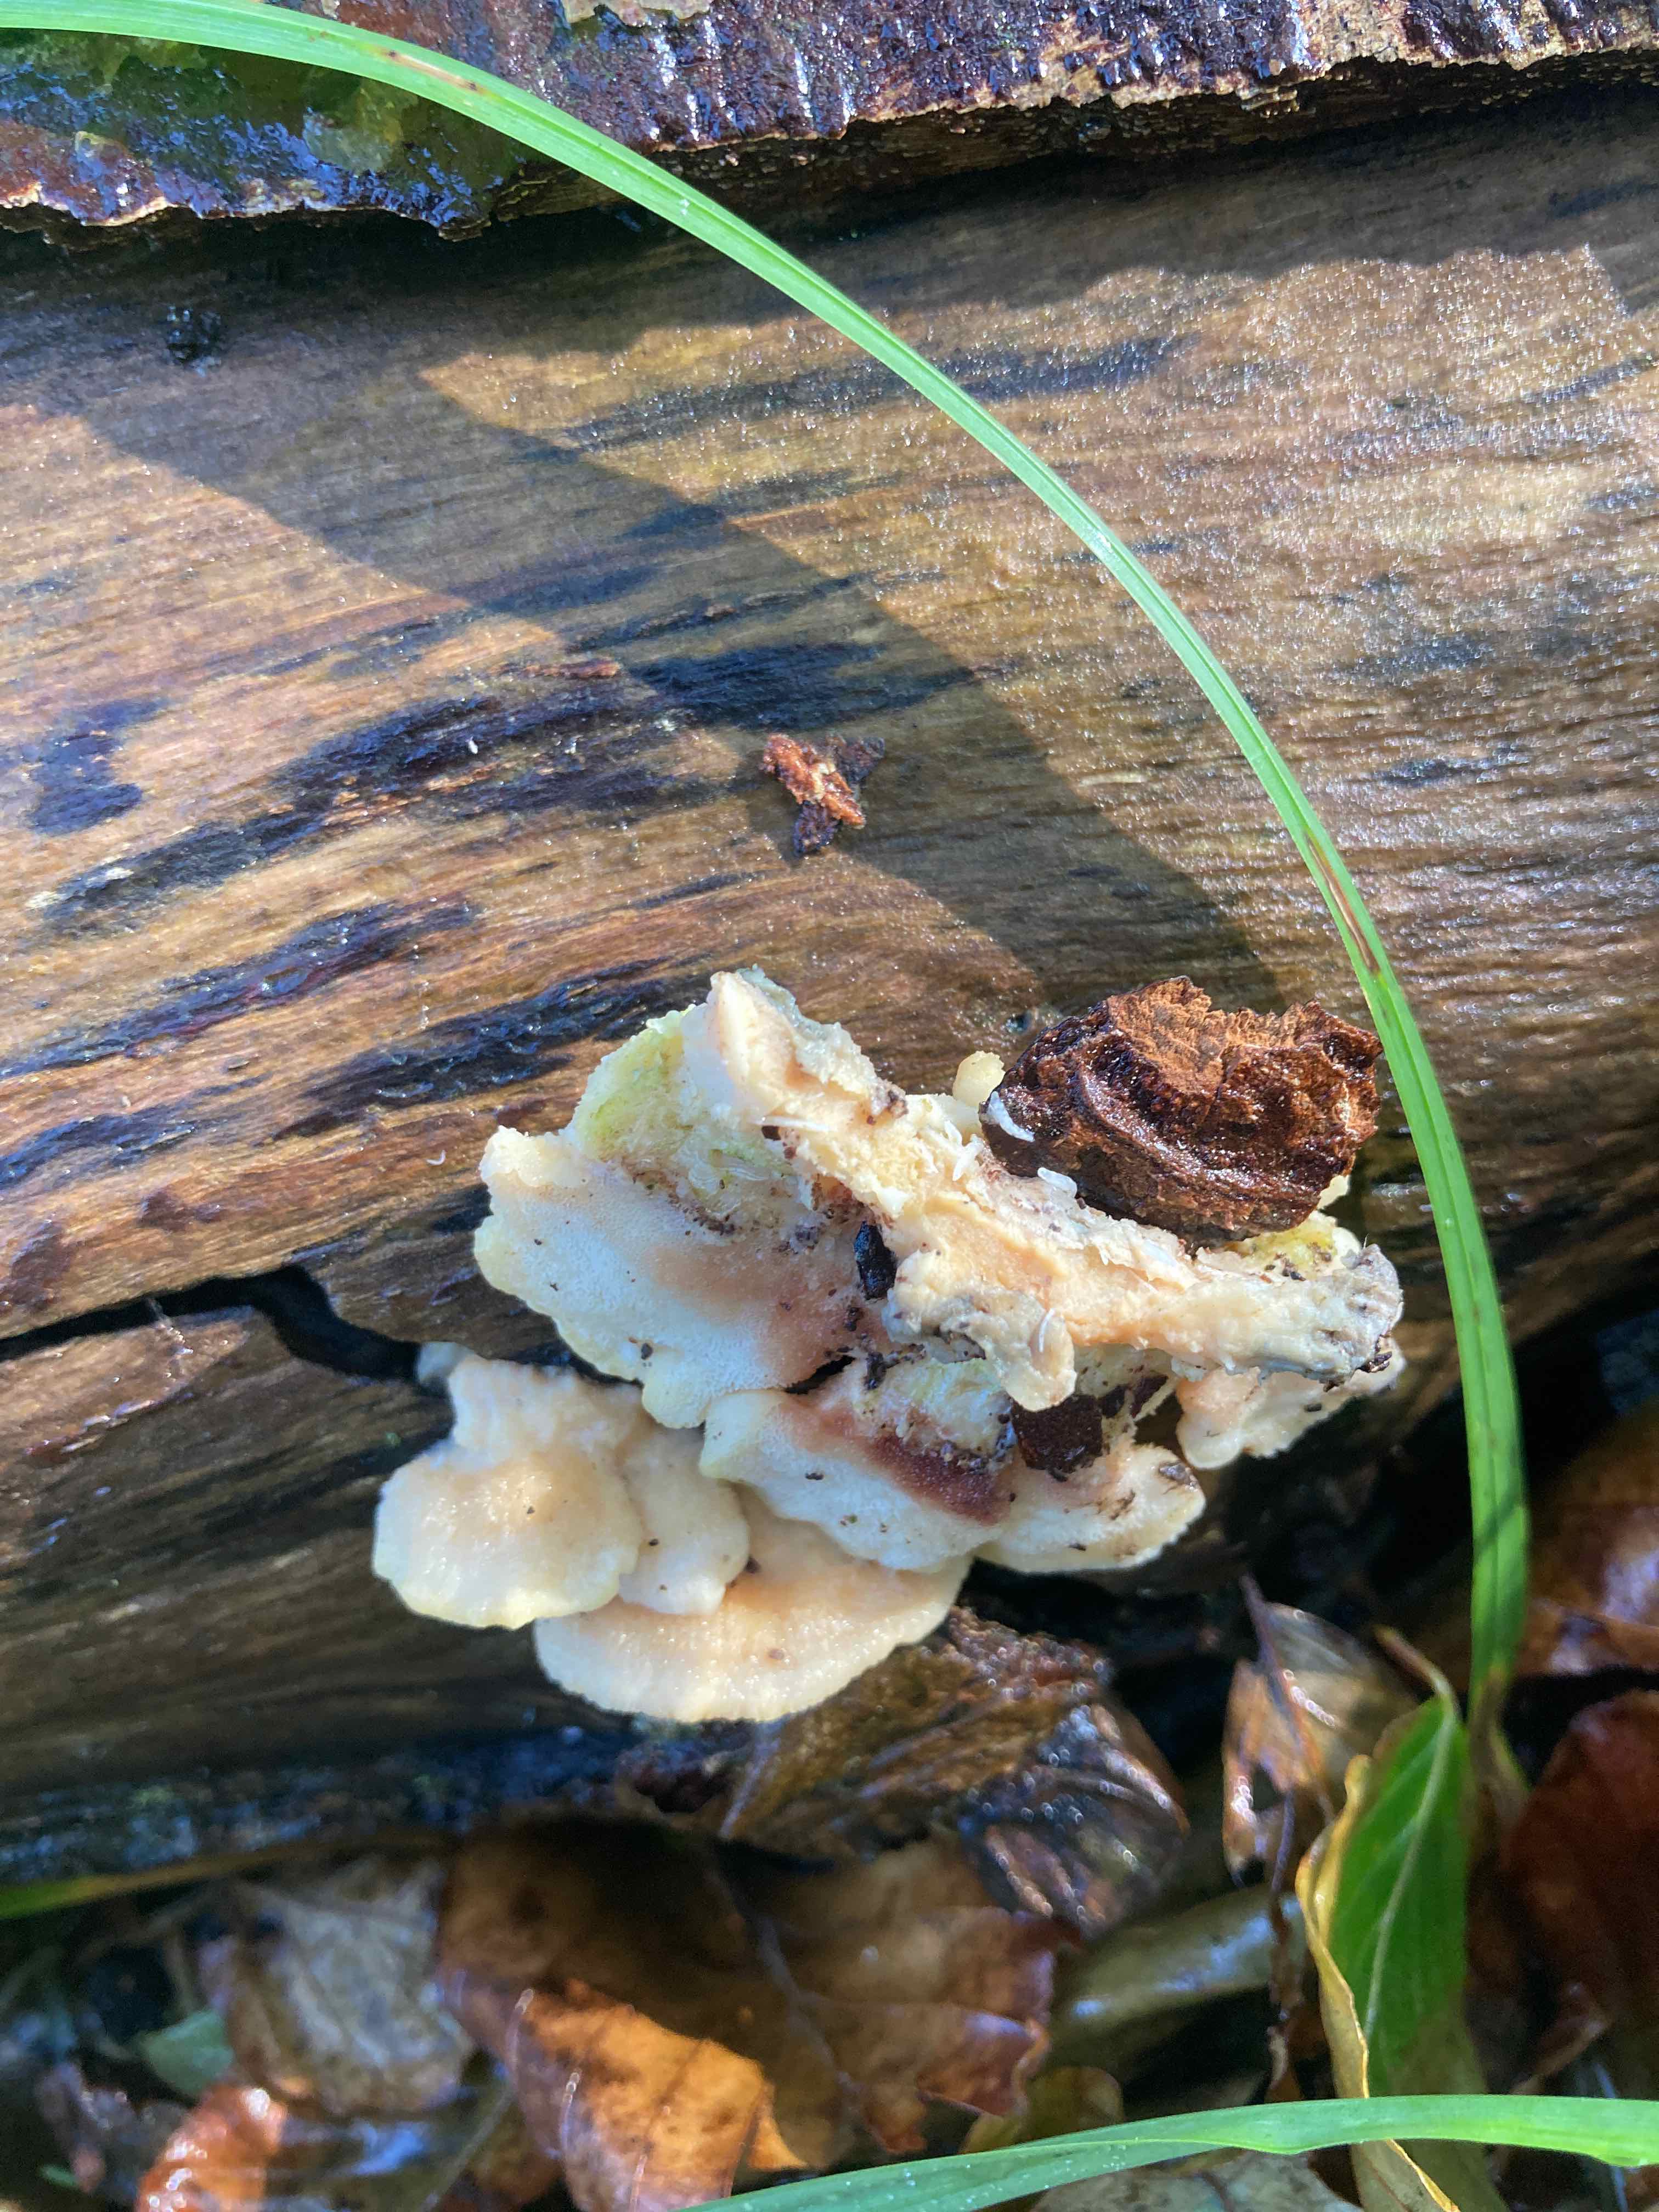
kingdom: Fungi
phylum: Basidiomycota
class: Agaricomycetes
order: Polyporales
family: Steccherinaceae
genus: Antrodiella
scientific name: Antrodiella
